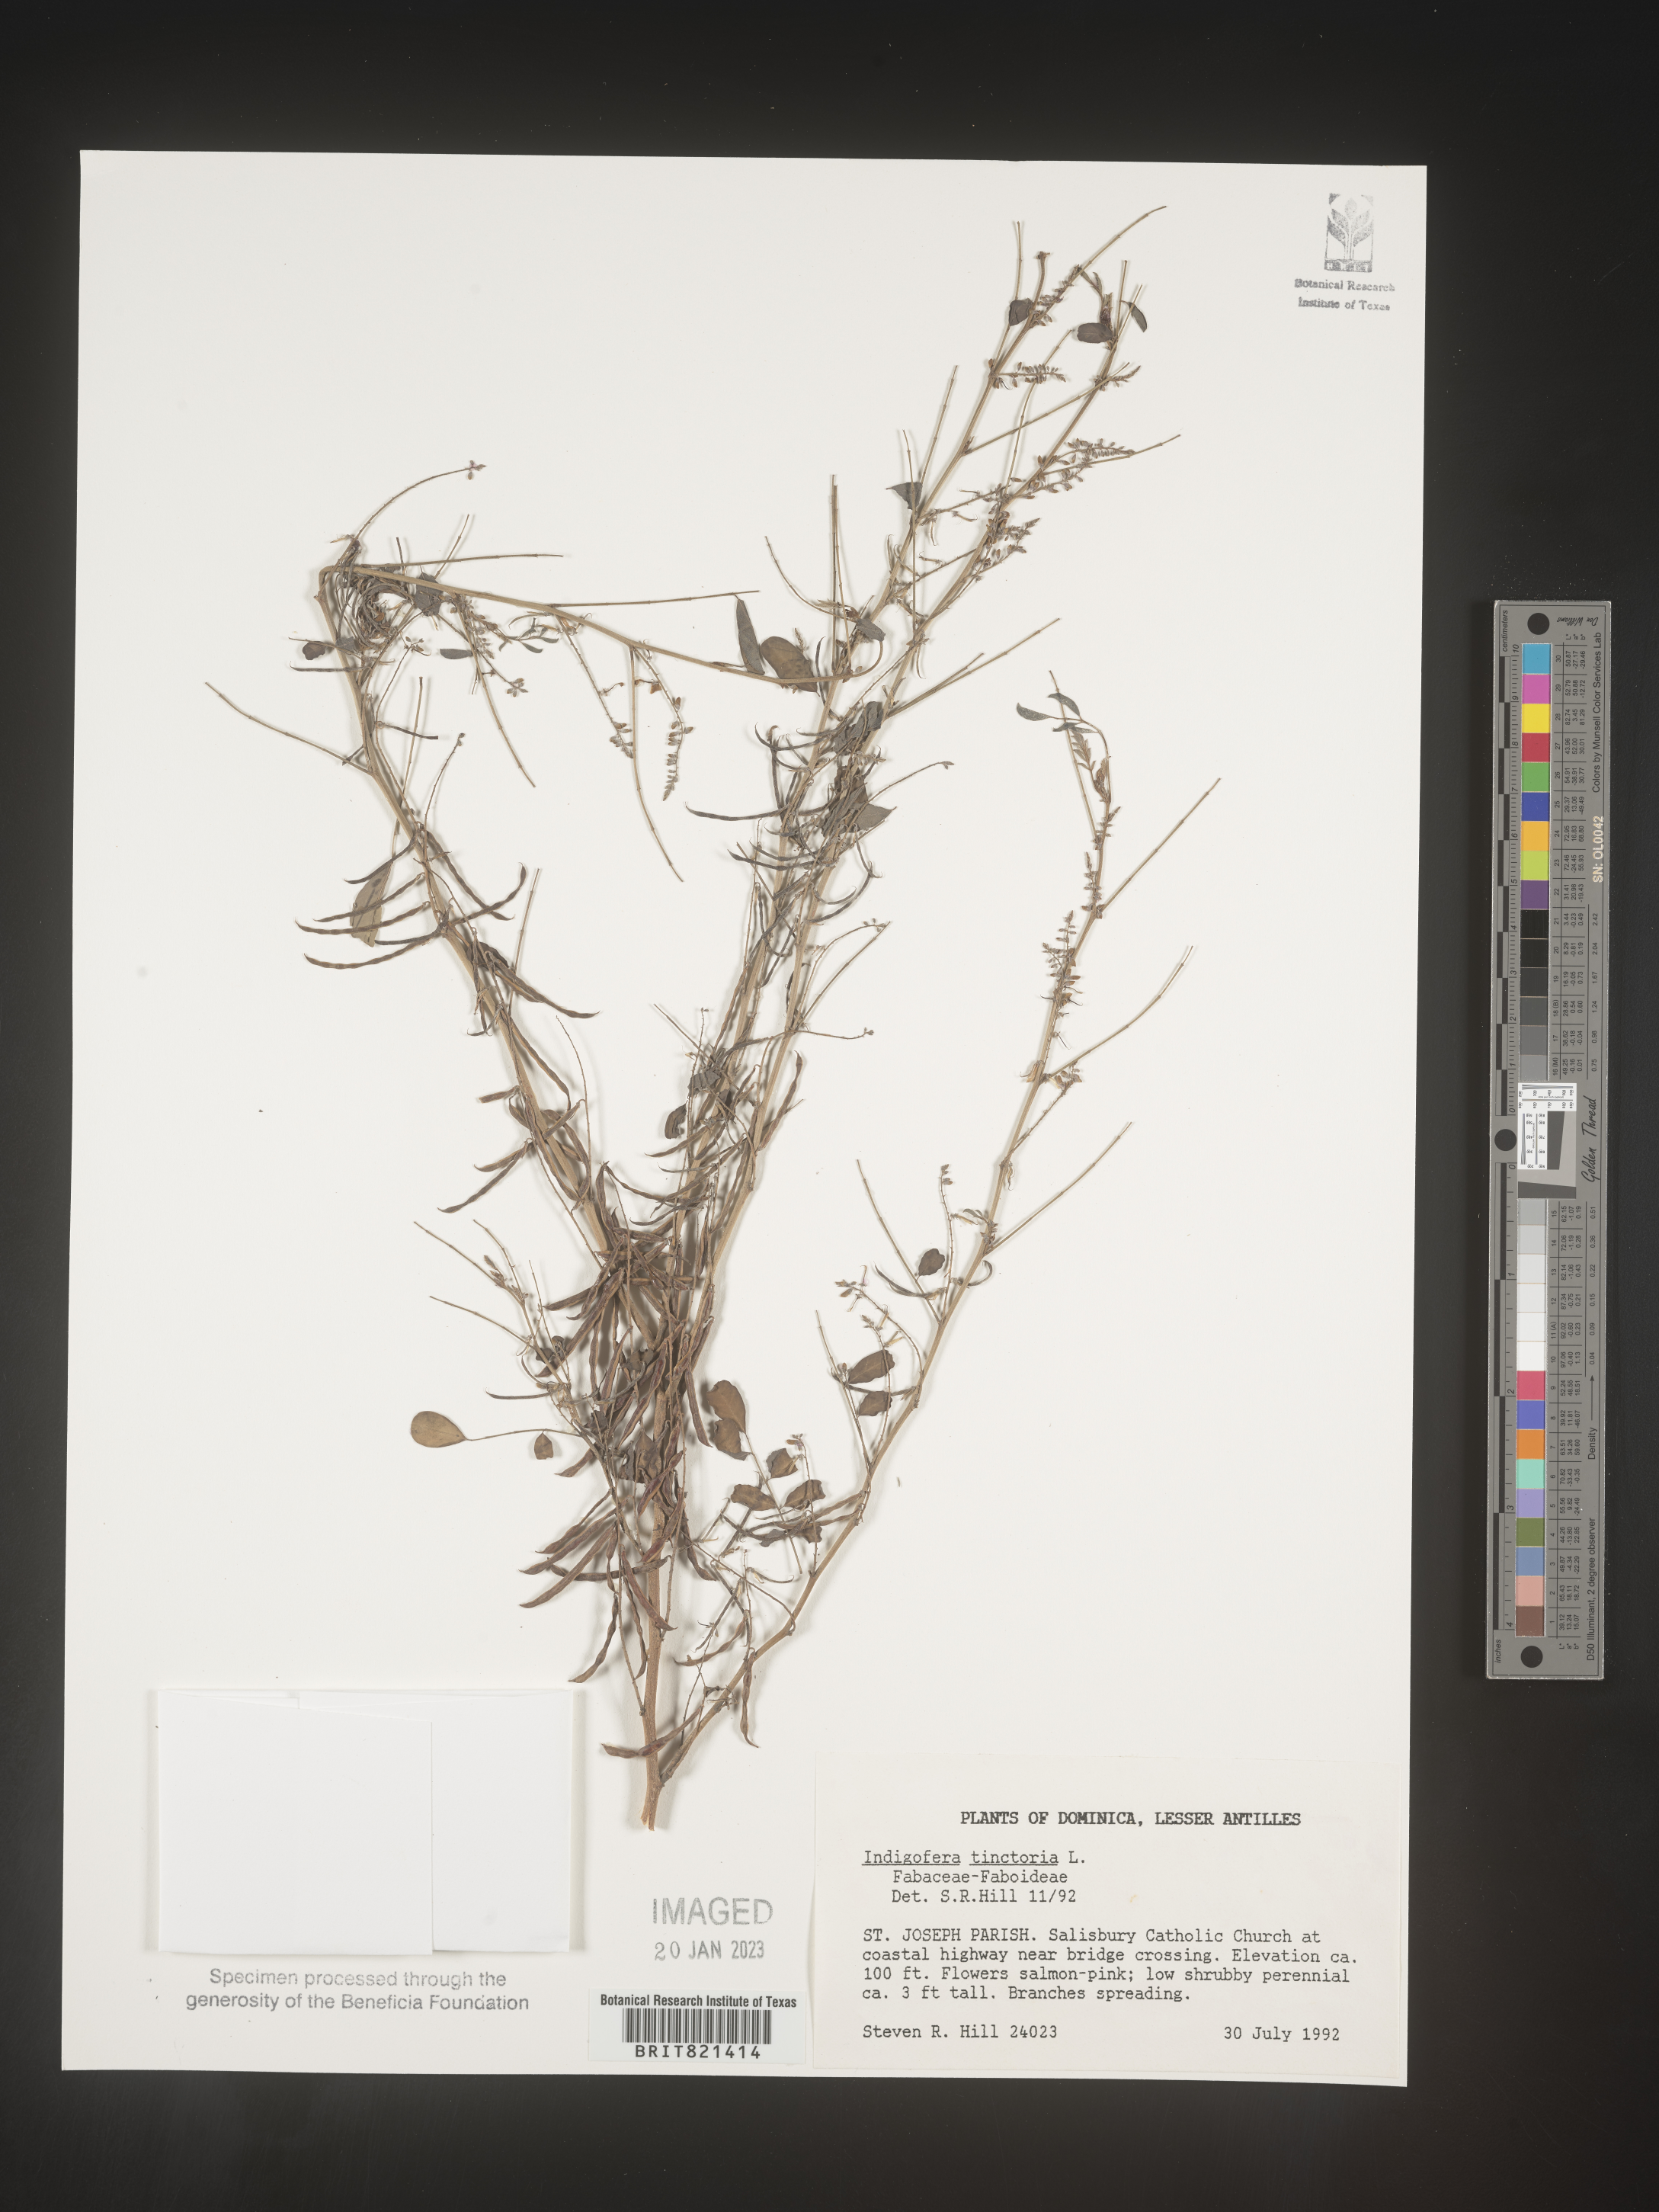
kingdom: Plantae
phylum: Tracheophyta
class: Magnoliopsida
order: Fabales
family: Fabaceae
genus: Indigofera
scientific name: Indigofera
